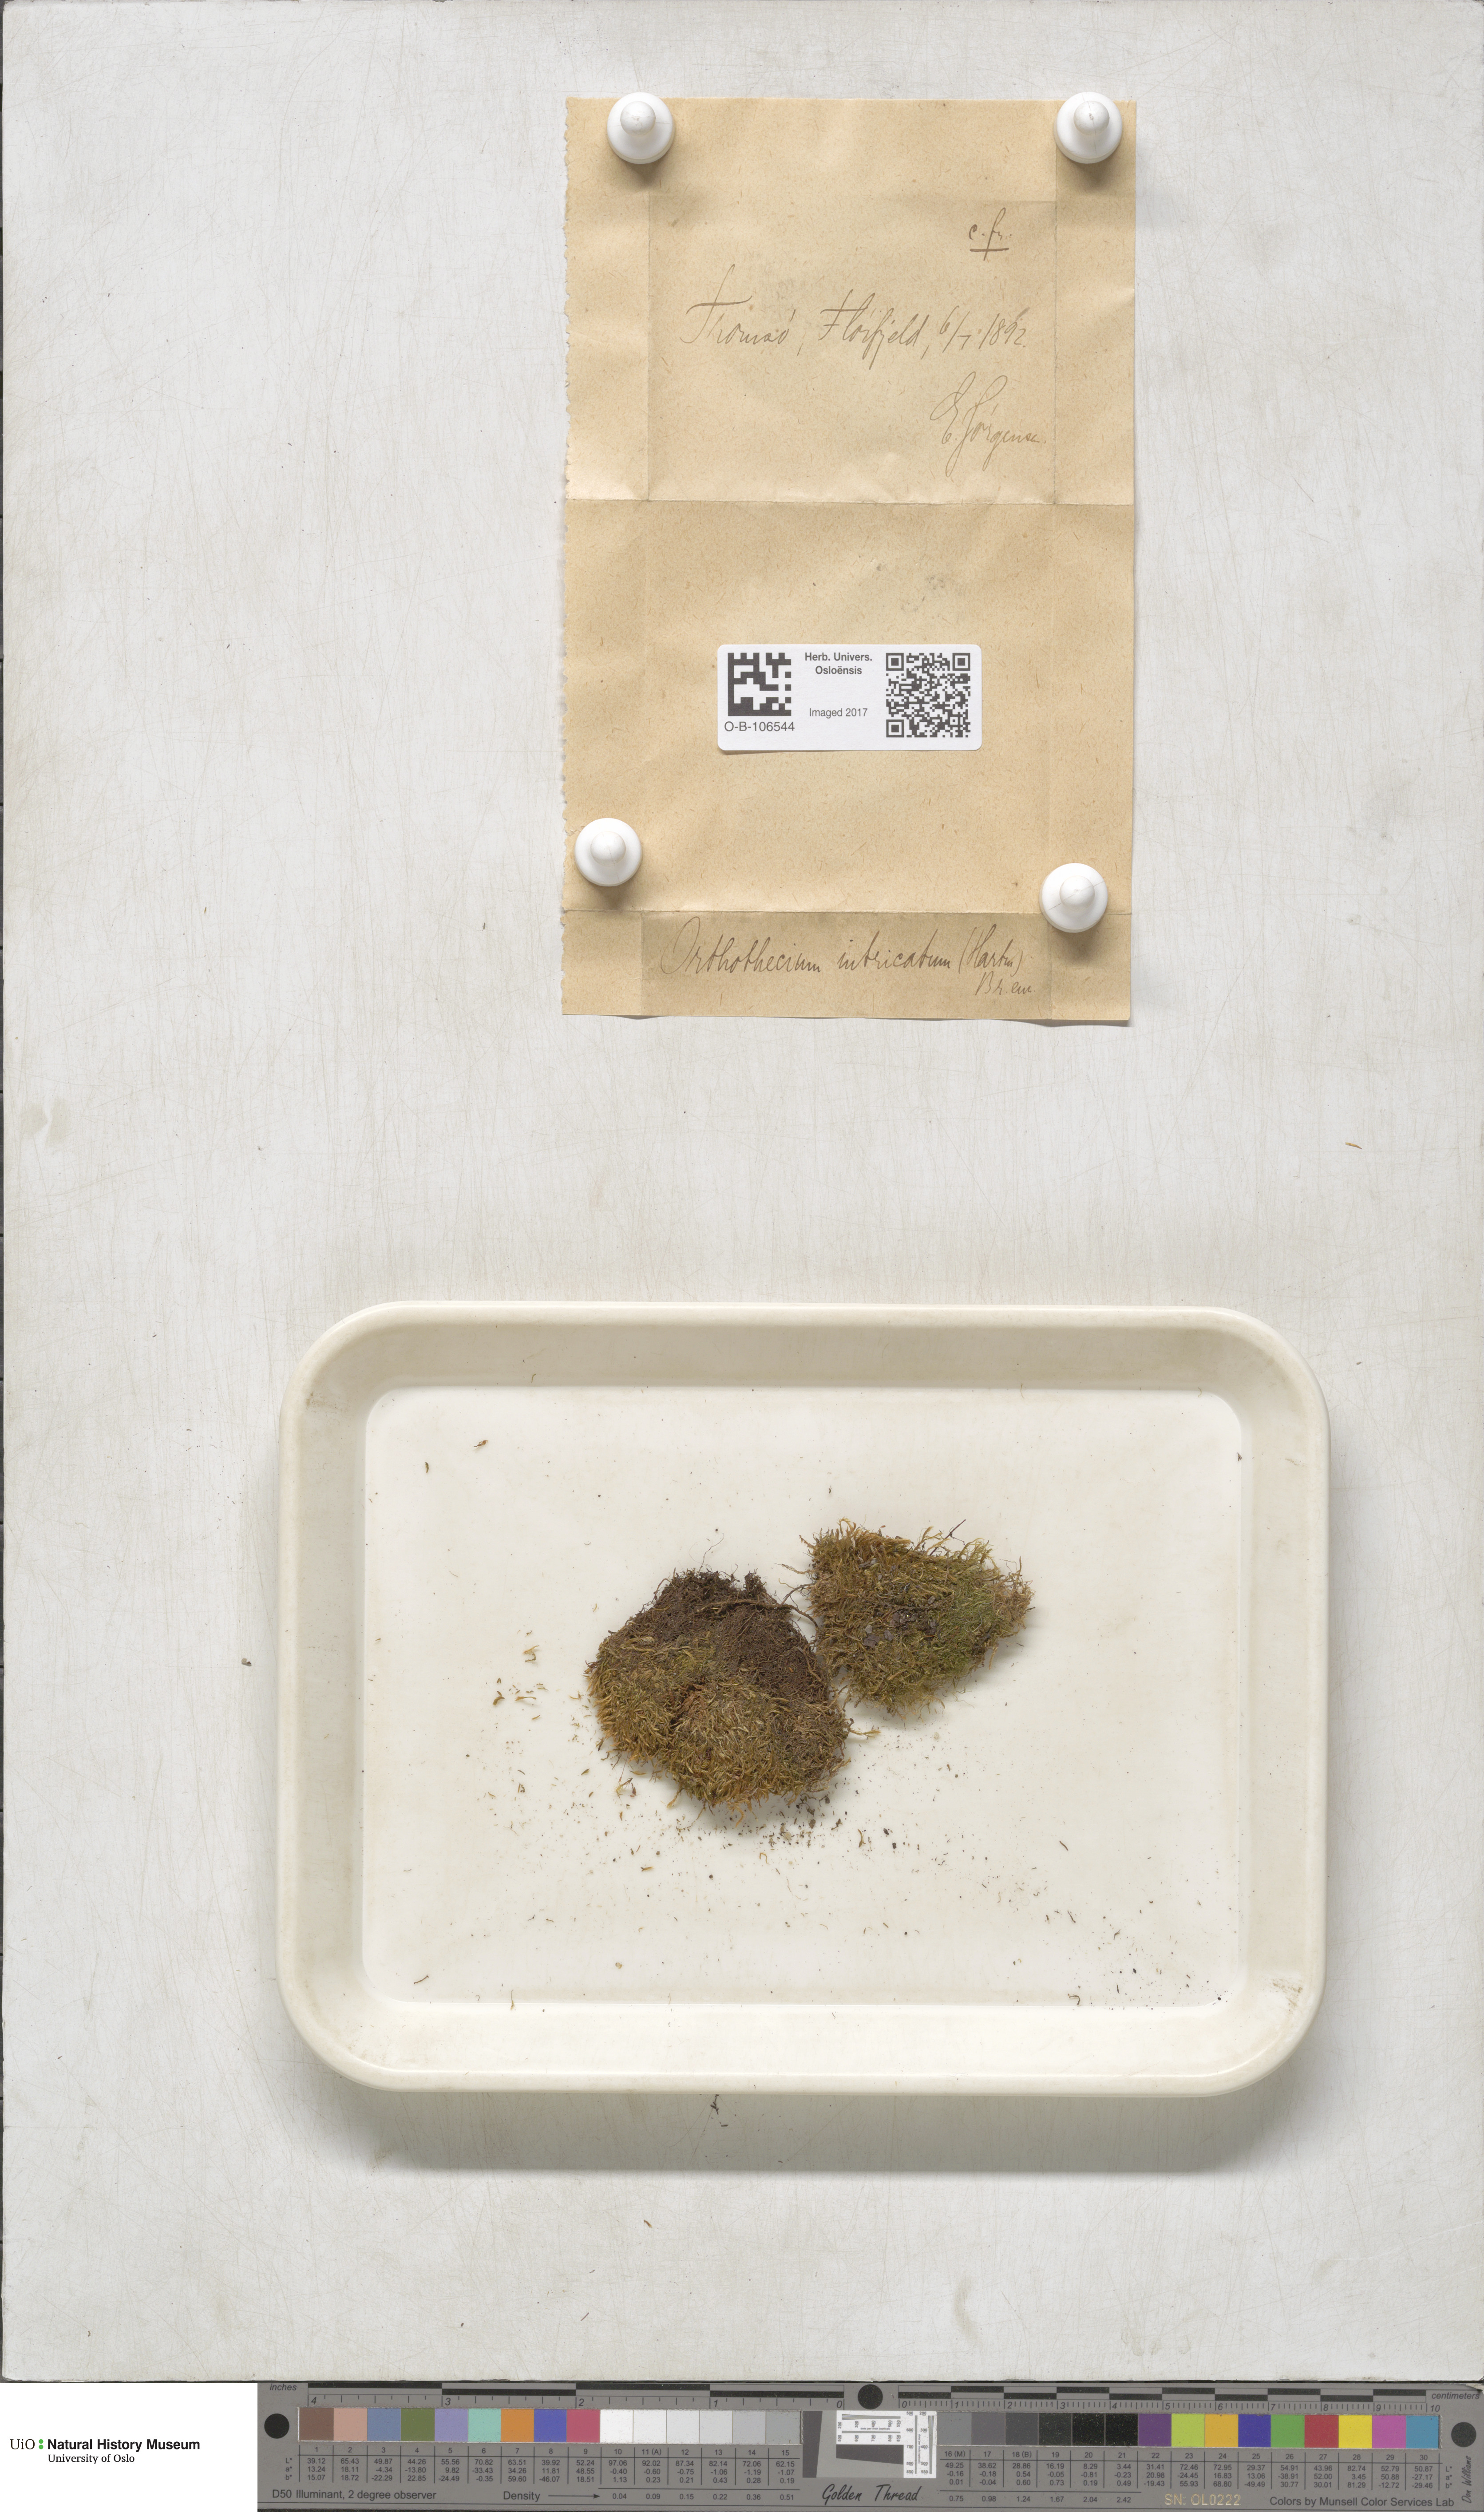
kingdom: Plantae
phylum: Bryophyta
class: Bryopsida
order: Hypnales
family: Plagiotheciaceae
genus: Orthothecium
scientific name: Orthothecium intricatum
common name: Fine-leaved erect-capsule moss
